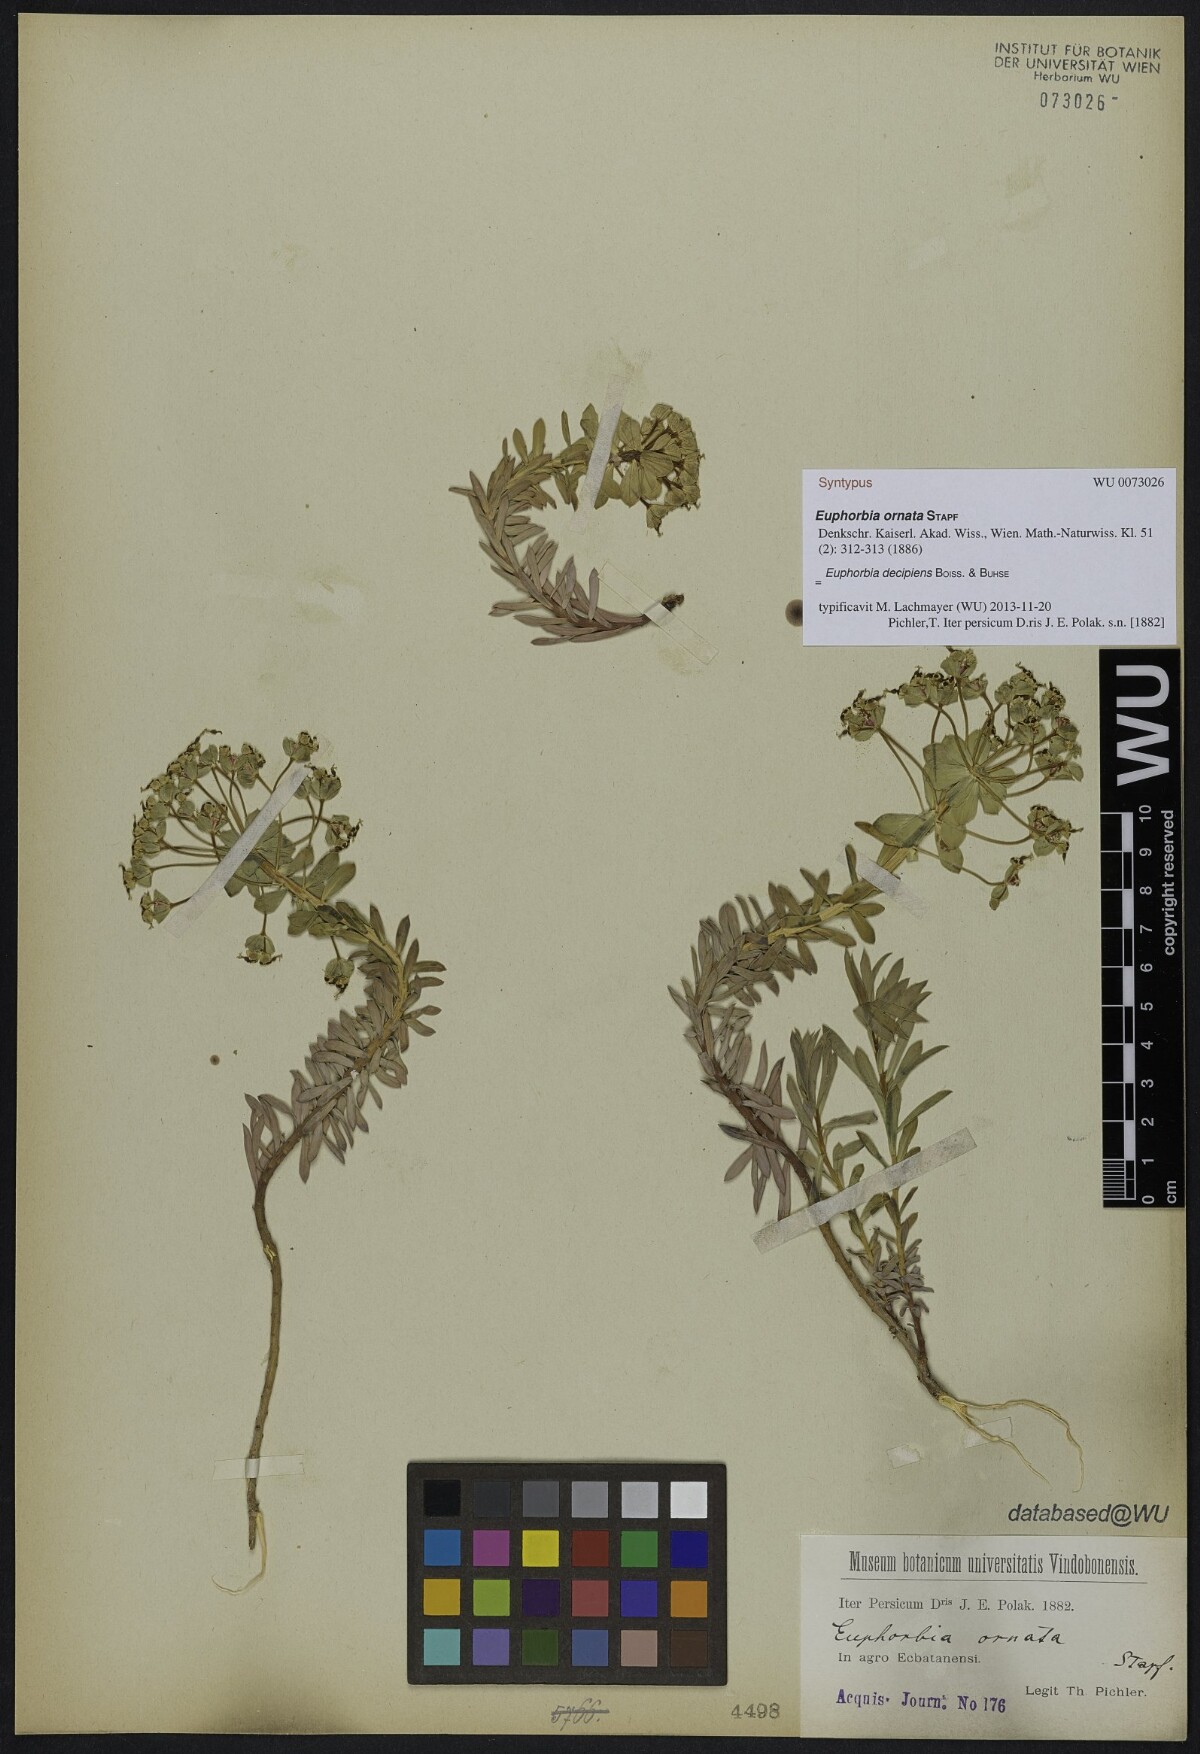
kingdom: Plantae
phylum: Tracheophyta
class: Magnoliopsida
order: Malpighiales
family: Euphorbiaceae
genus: Euphorbia
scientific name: Euphorbia polycaulis
